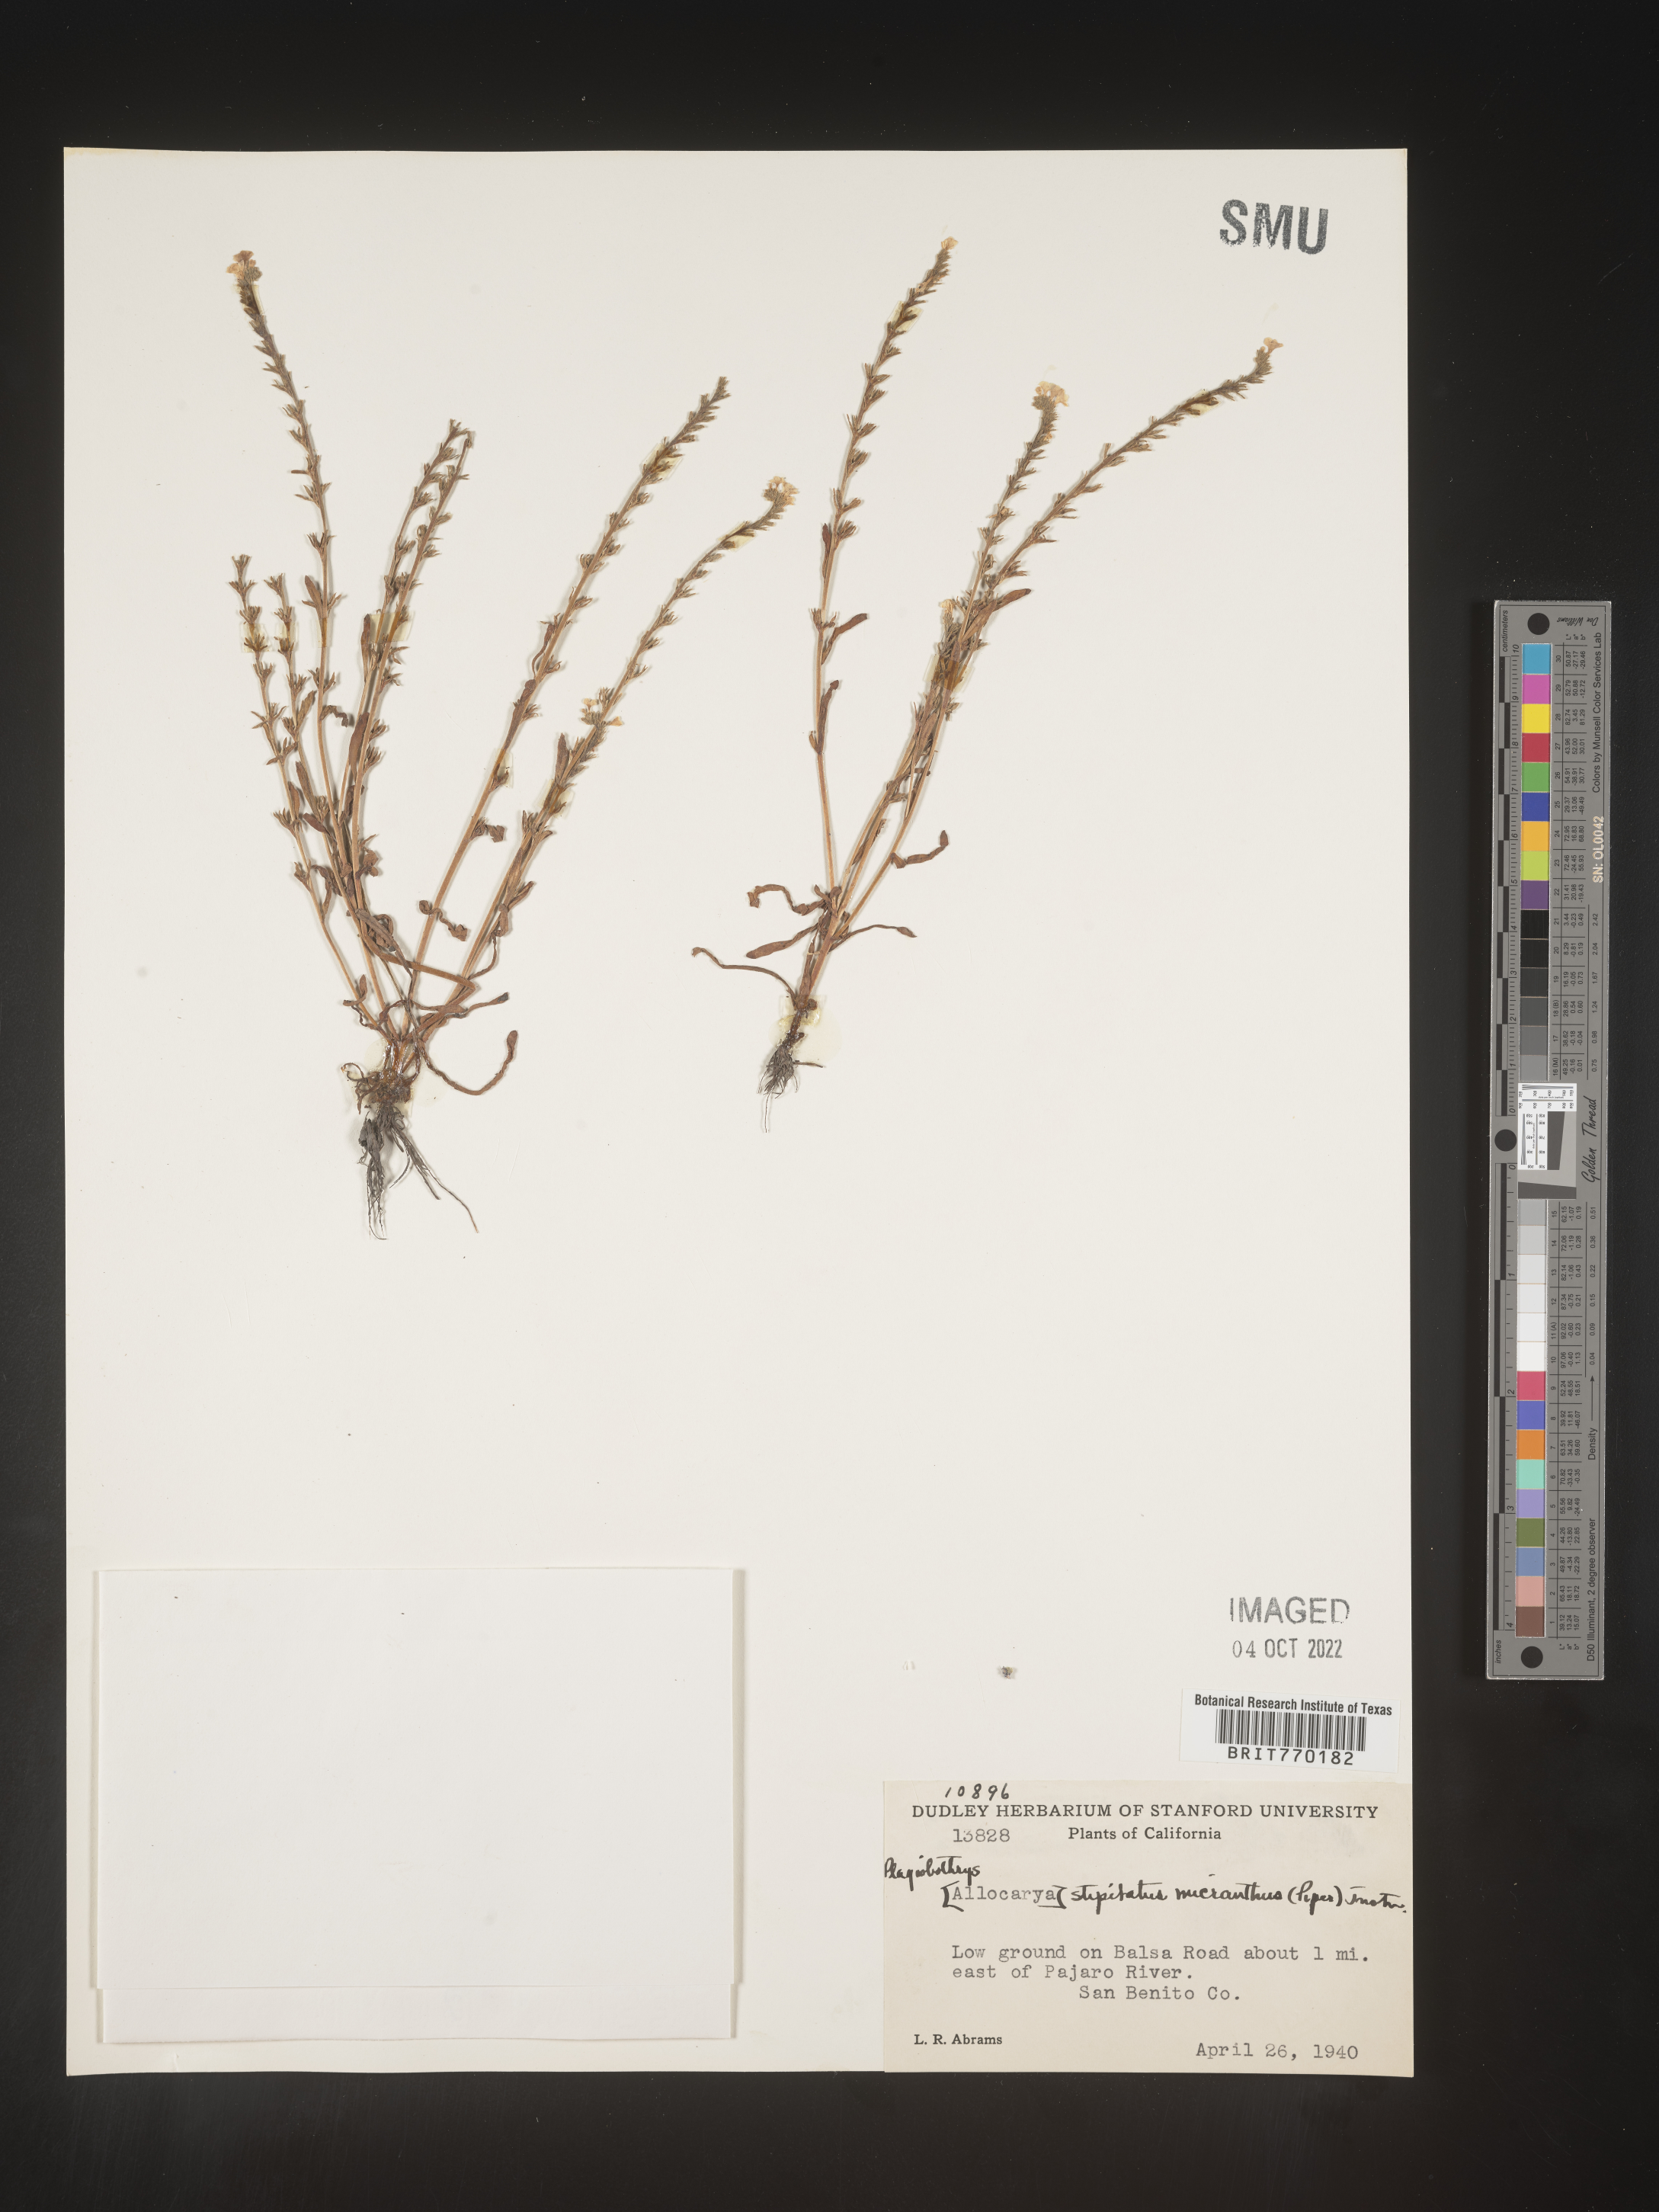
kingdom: Plantae
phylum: Tracheophyta
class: Magnoliopsida
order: Boraginales
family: Boraginaceae
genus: Plagiobothrys
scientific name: Plagiobothrys
